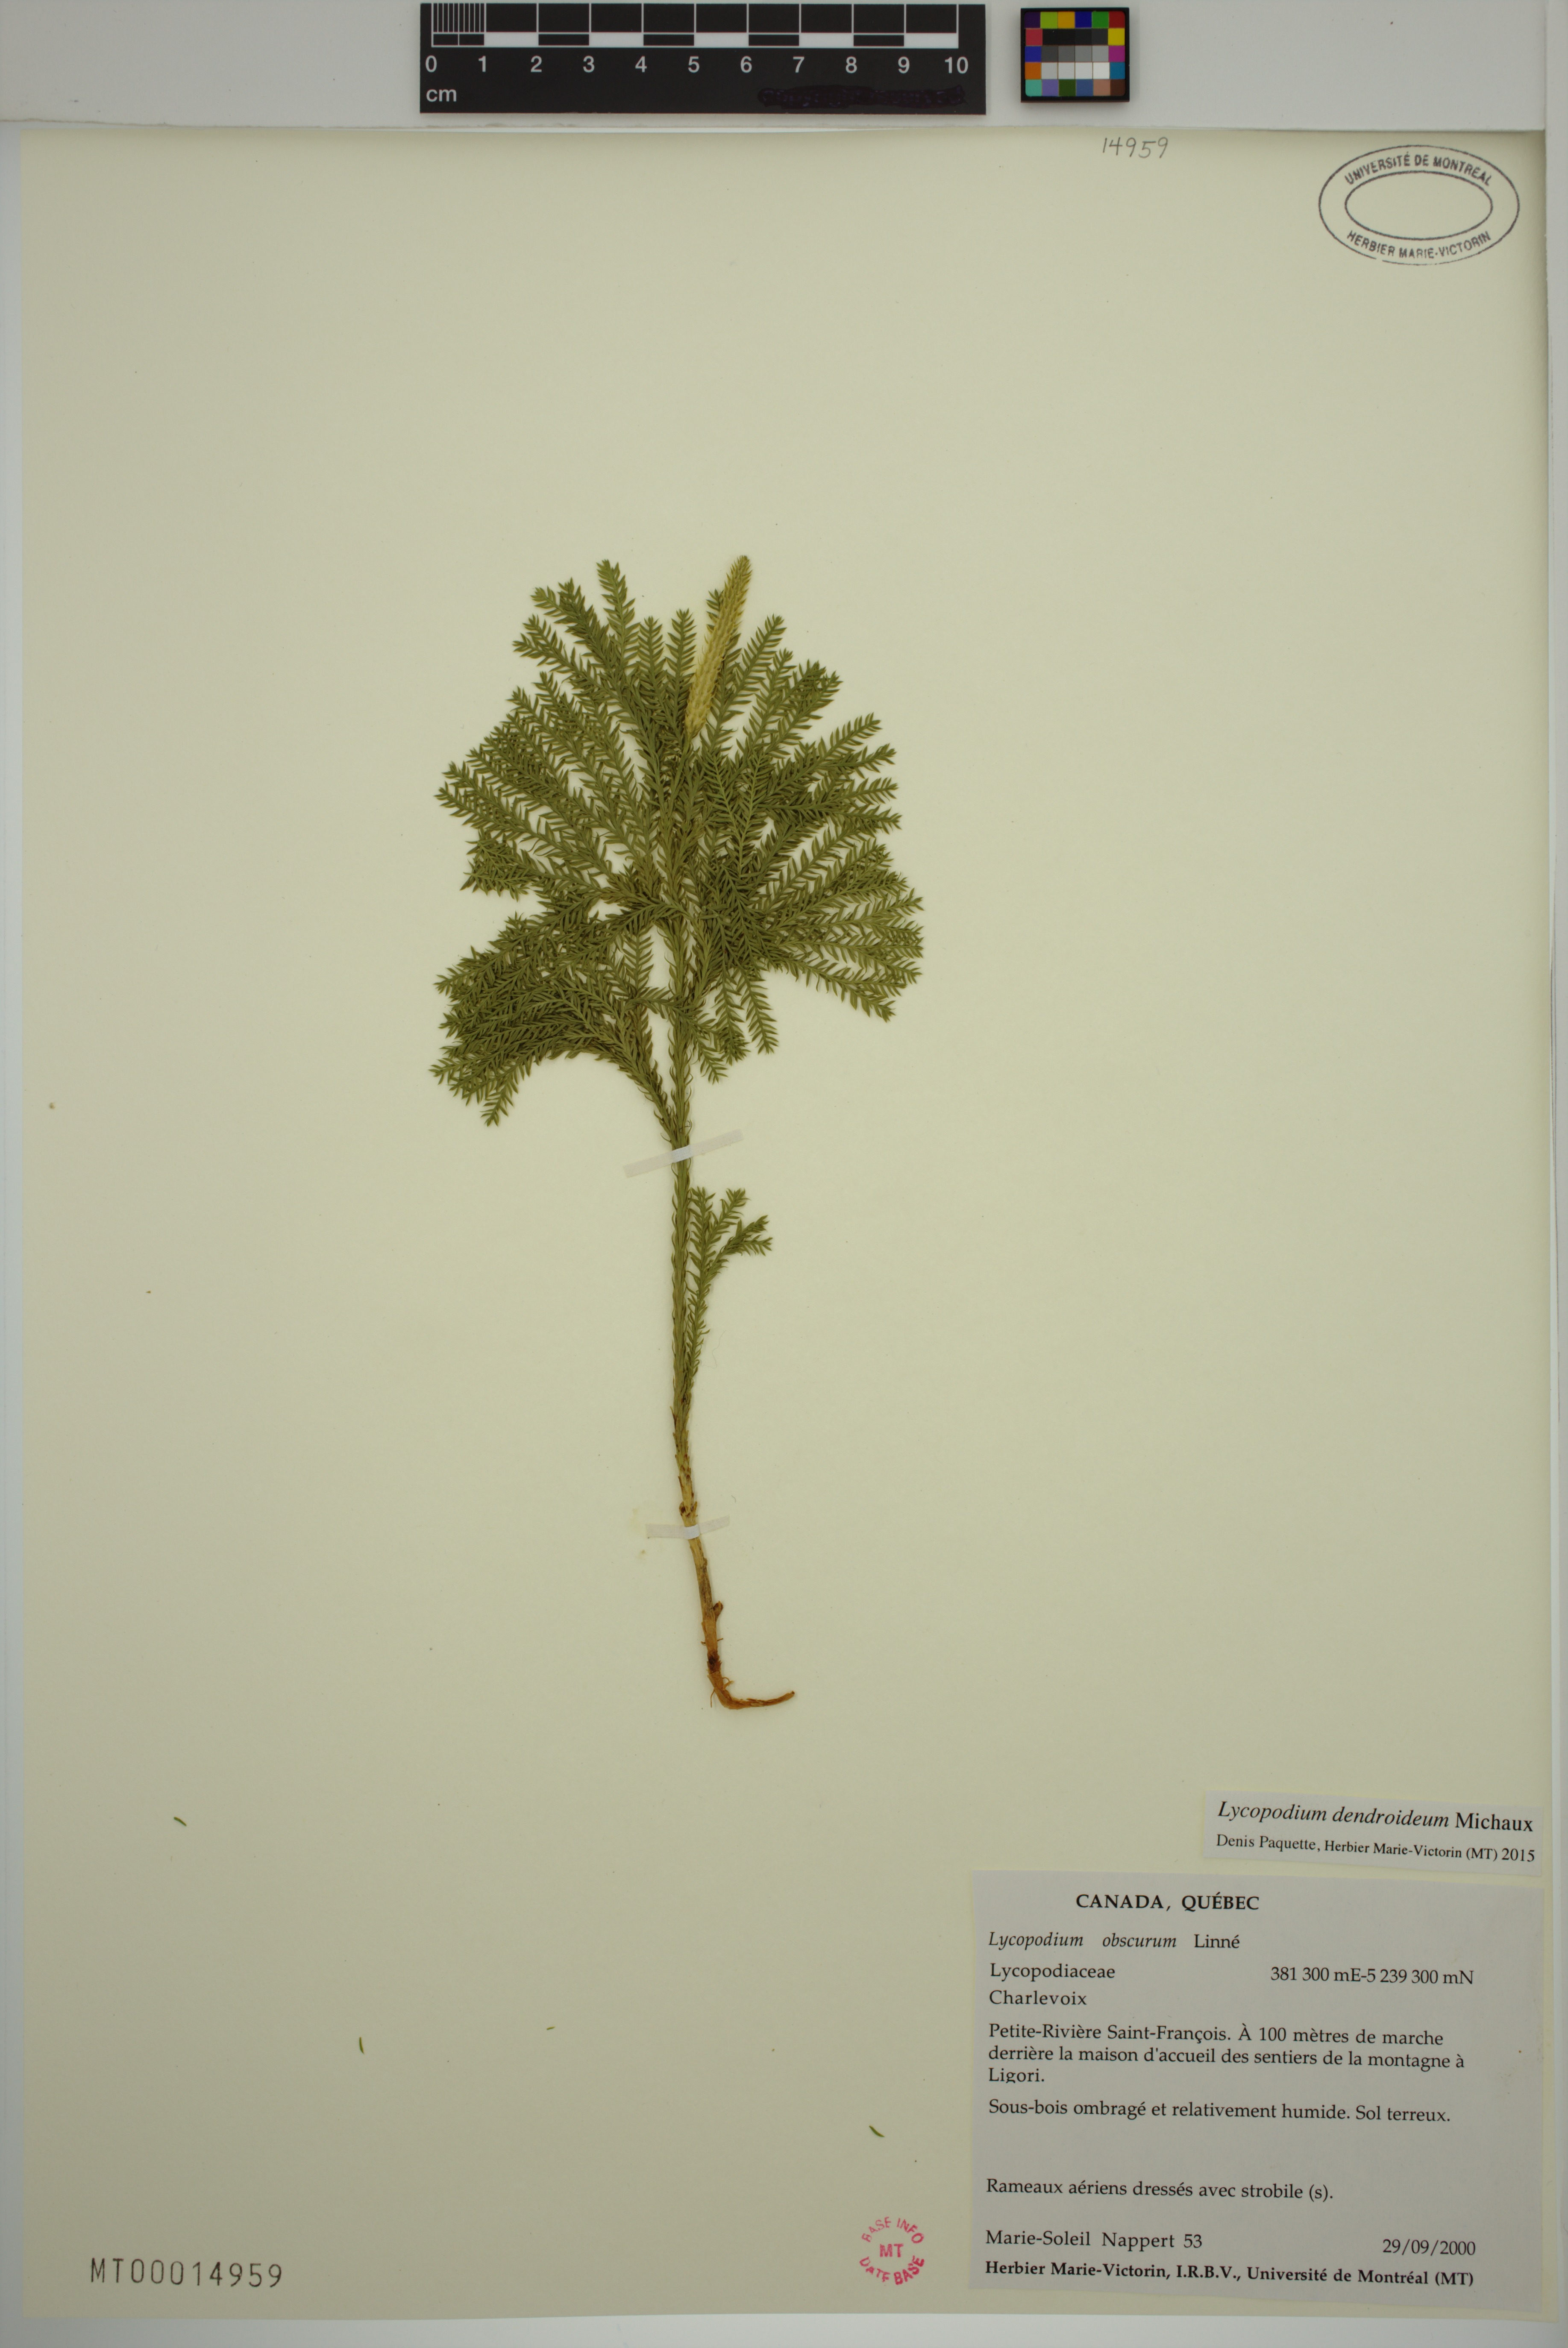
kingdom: Plantae
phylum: Tracheophyta
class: Lycopodiopsida
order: Lycopodiales
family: Lycopodiaceae
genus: Dendrolycopodium
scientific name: Dendrolycopodium dendroideum
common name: Northern tree-clubmoss
